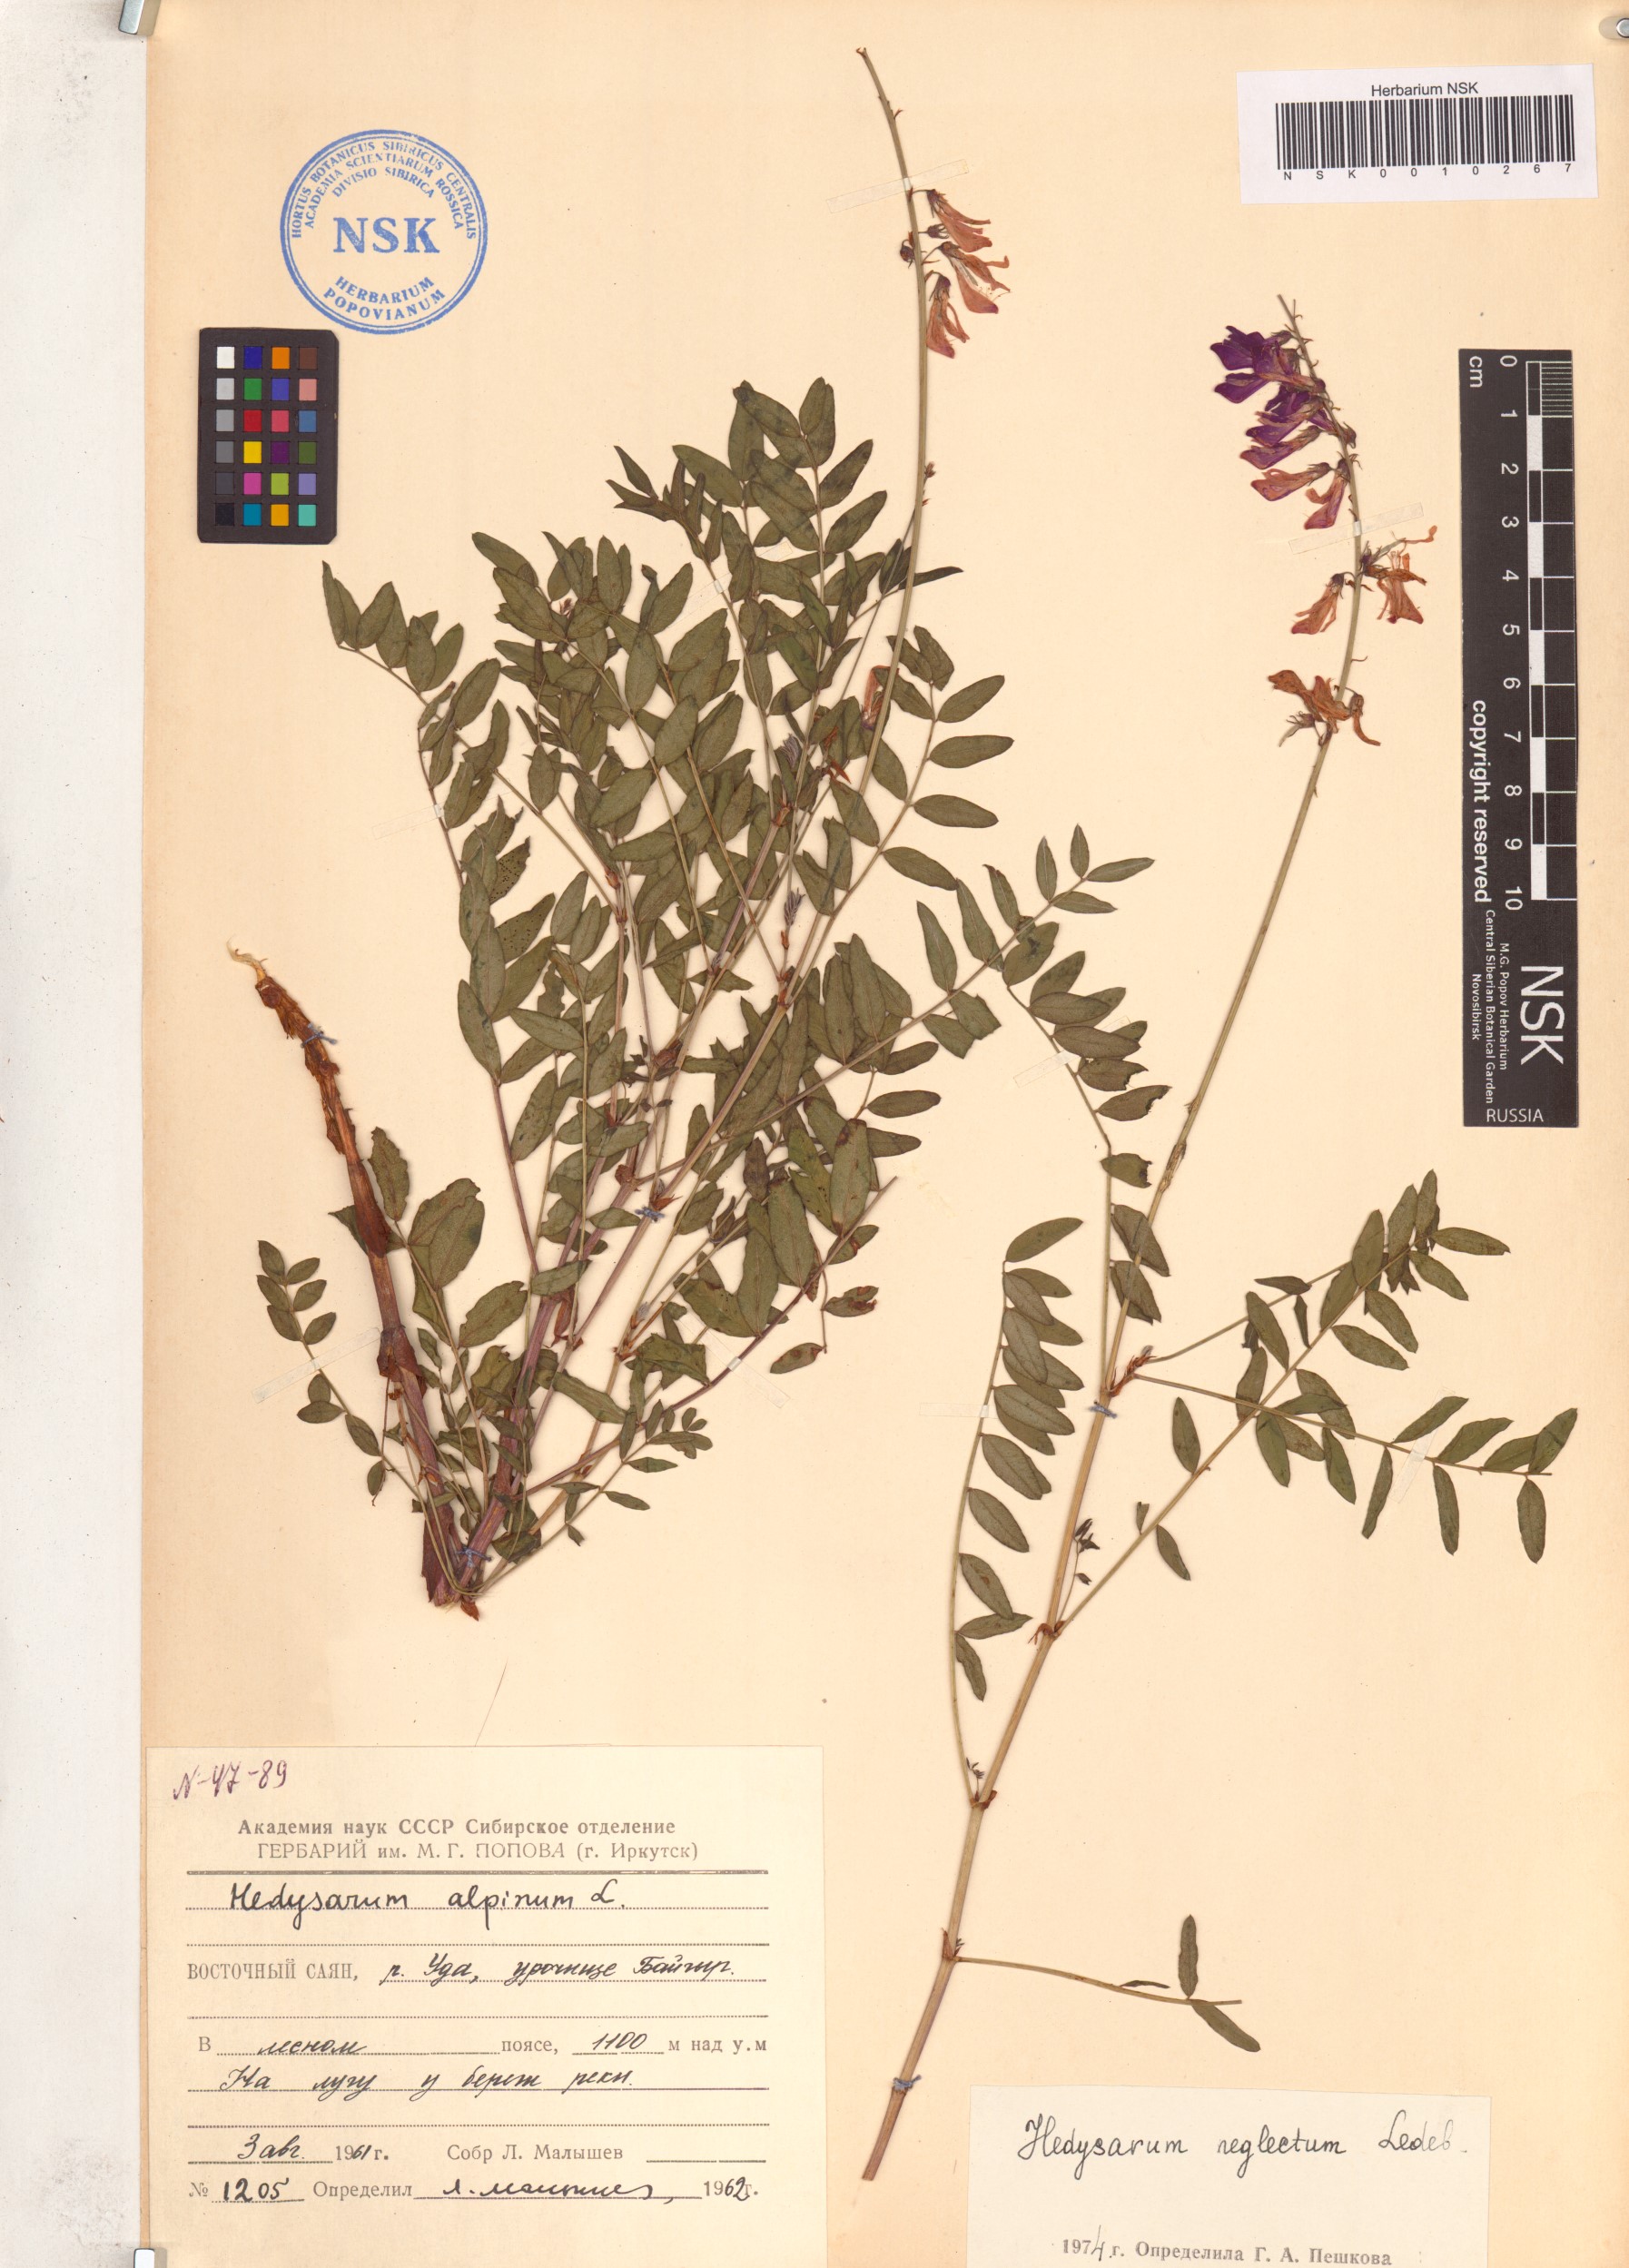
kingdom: Plantae
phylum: Tracheophyta
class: Magnoliopsida
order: Fabales
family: Fabaceae
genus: Hedysarum
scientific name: Hedysarum neglectum
